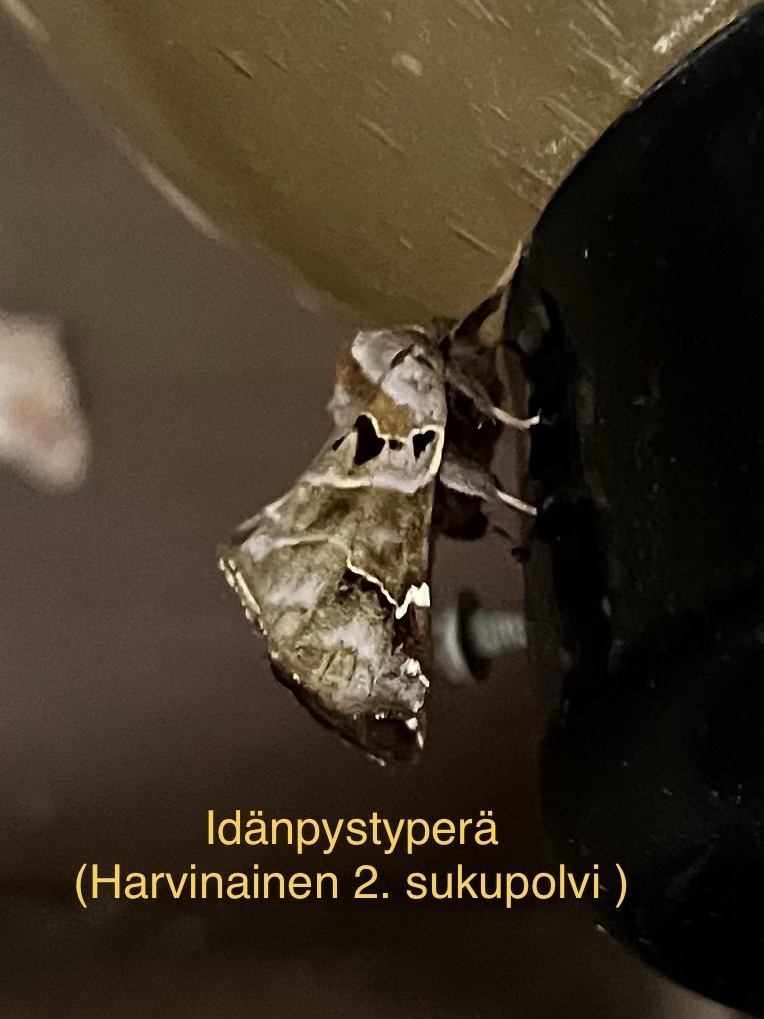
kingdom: Animalia
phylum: Arthropoda
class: Insecta
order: Lepidoptera
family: Notodontidae
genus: Pygaera
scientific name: Pygaera timon
